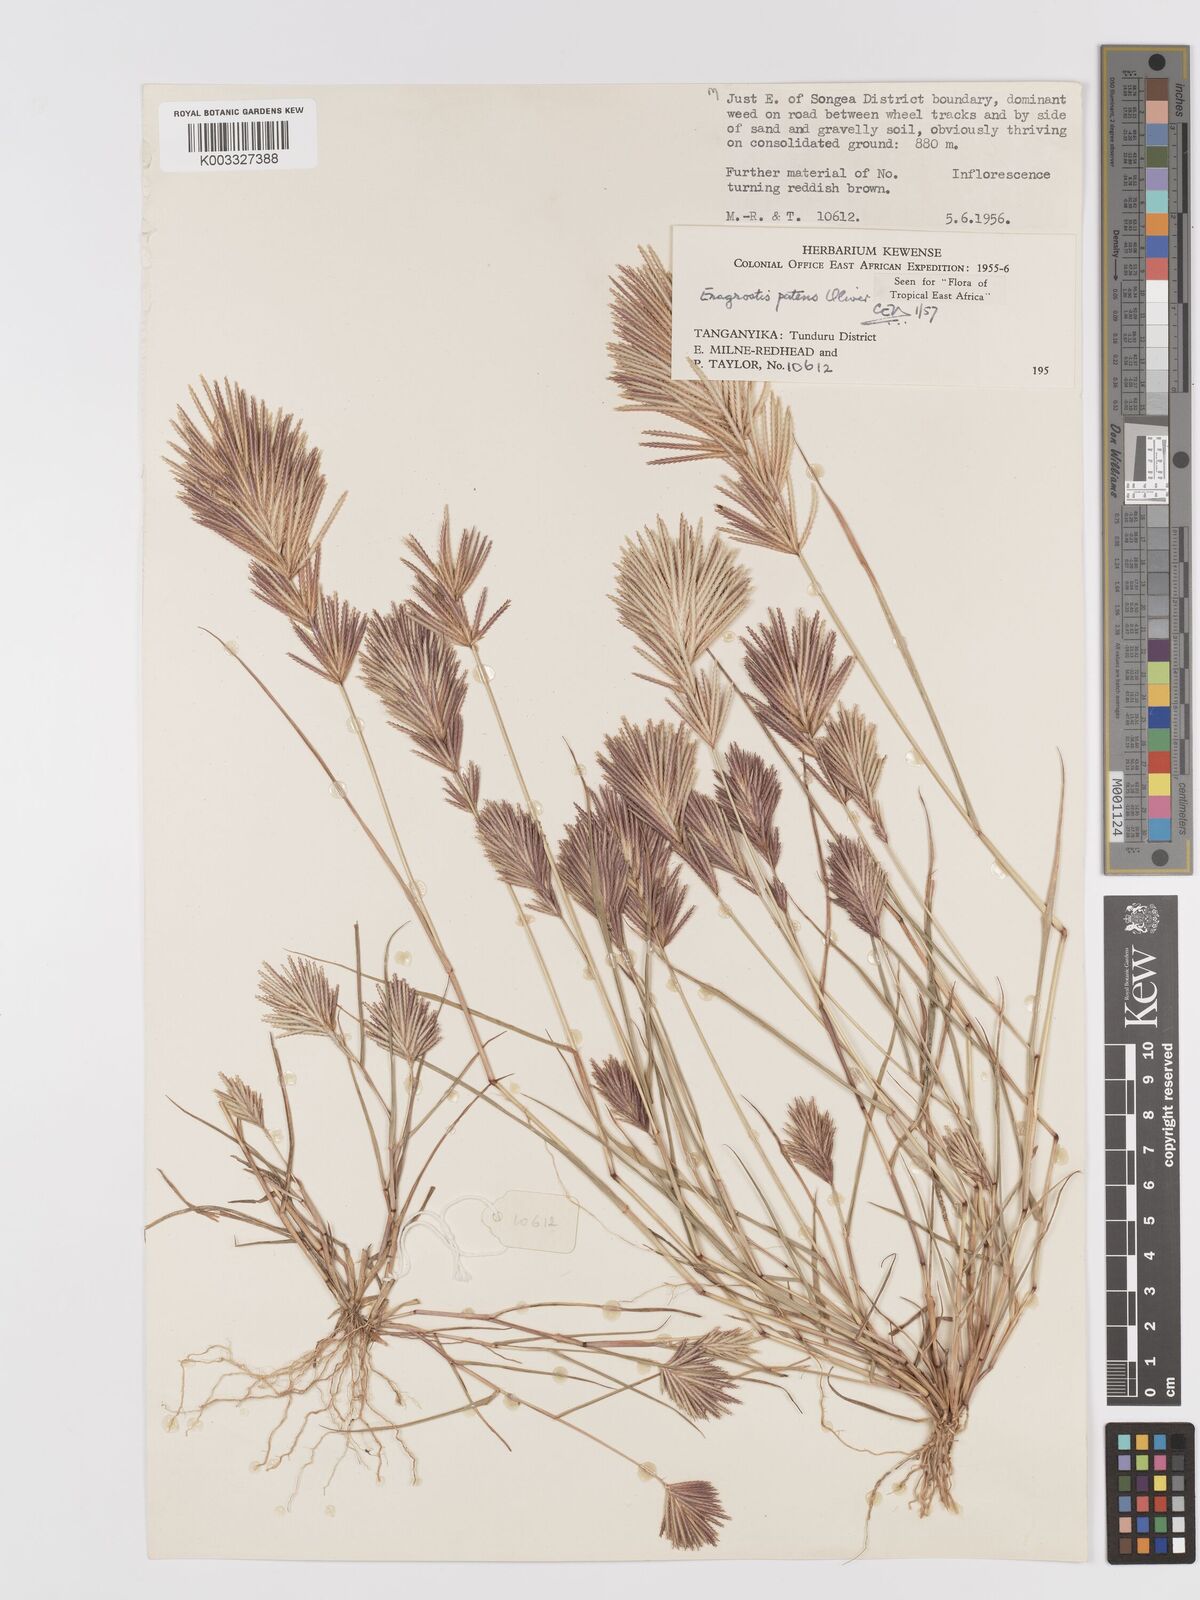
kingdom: Plantae
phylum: Tracheophyta
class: Liliopsida
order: Poales
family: Poaceae
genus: Eragrostis
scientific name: Eragrostis patens
